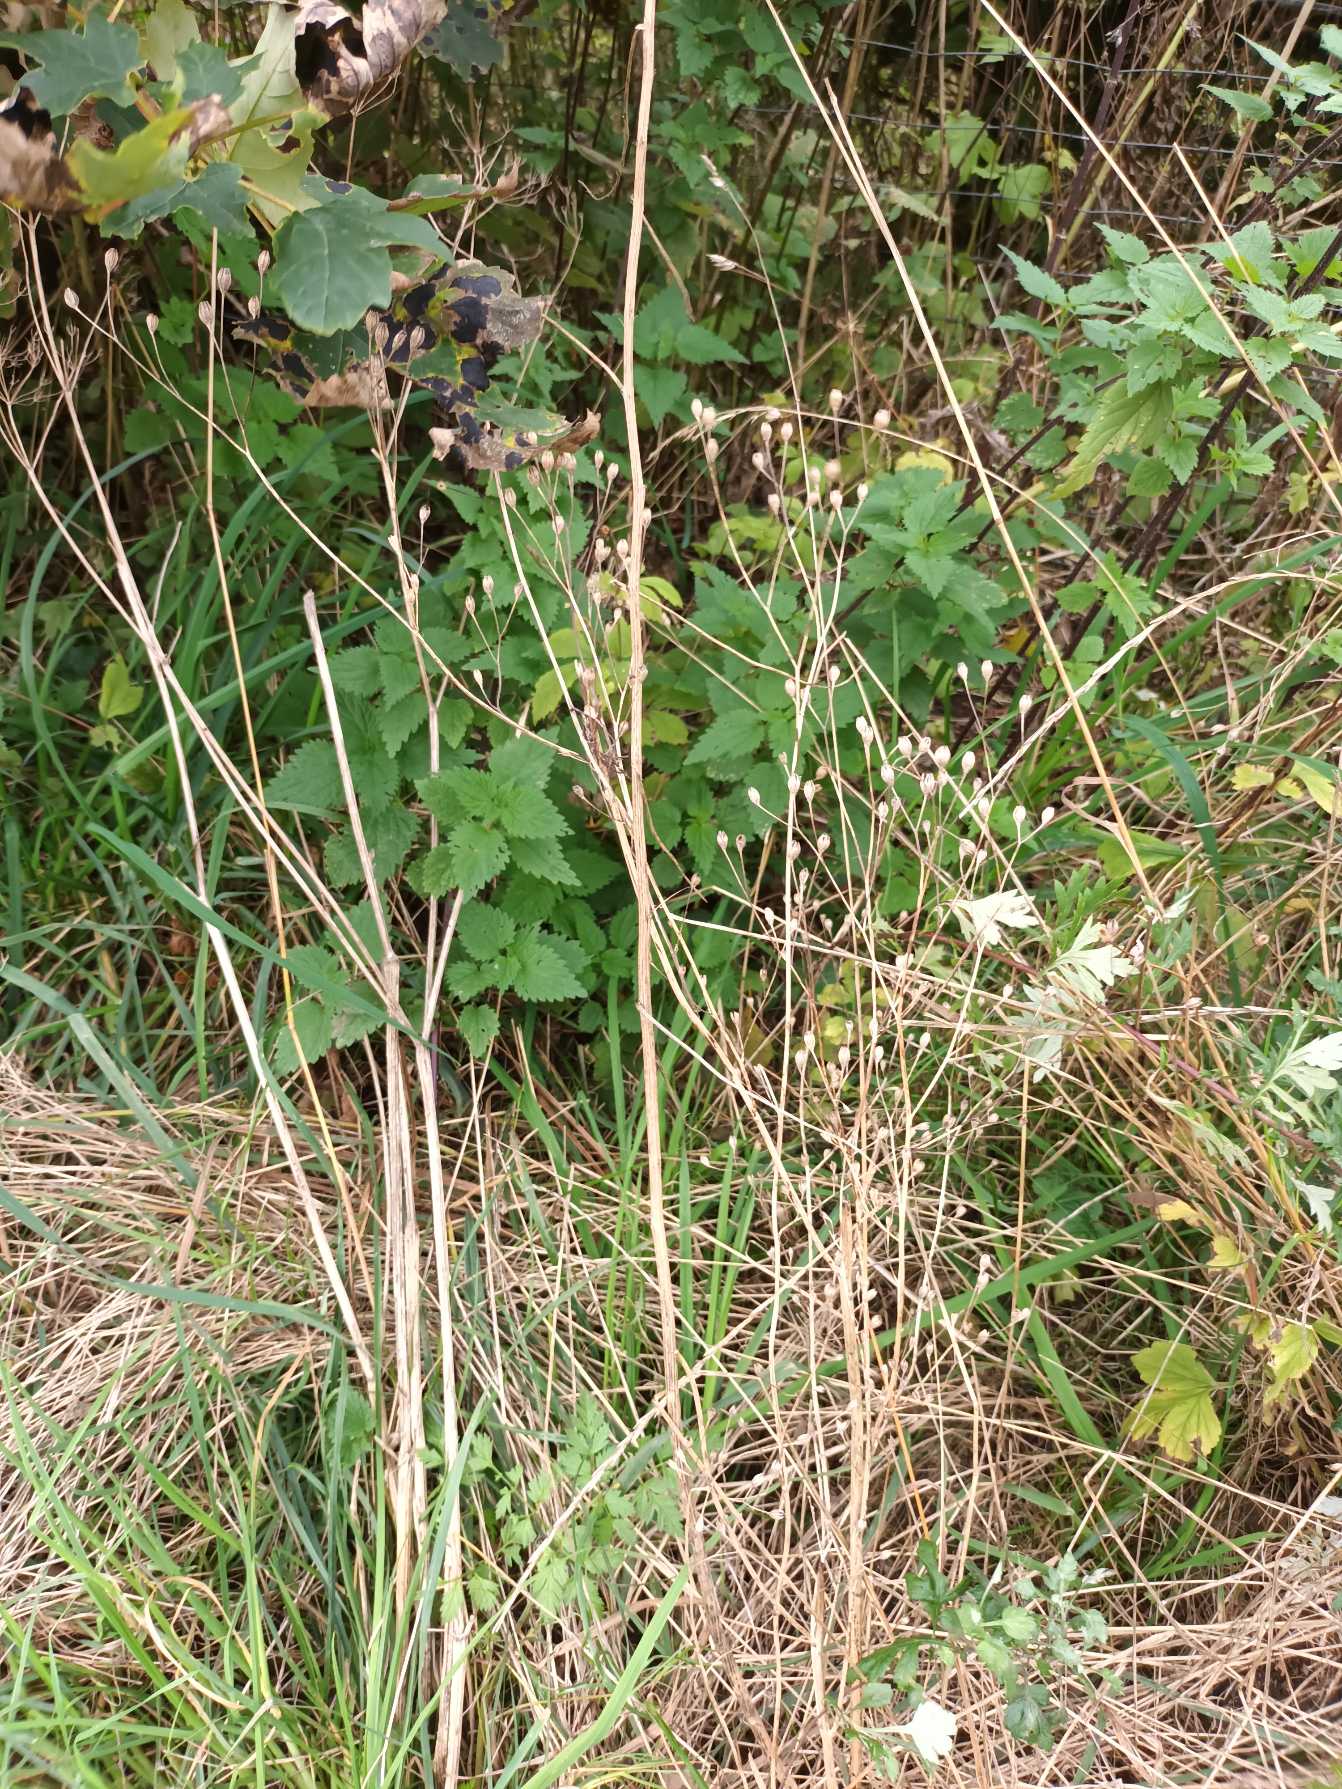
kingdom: Plantae
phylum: Tracheophyta
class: Magnoliopsida
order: Asterales
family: Asteraceae
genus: Lapsana
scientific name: Lapsana communis
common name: Haremad
